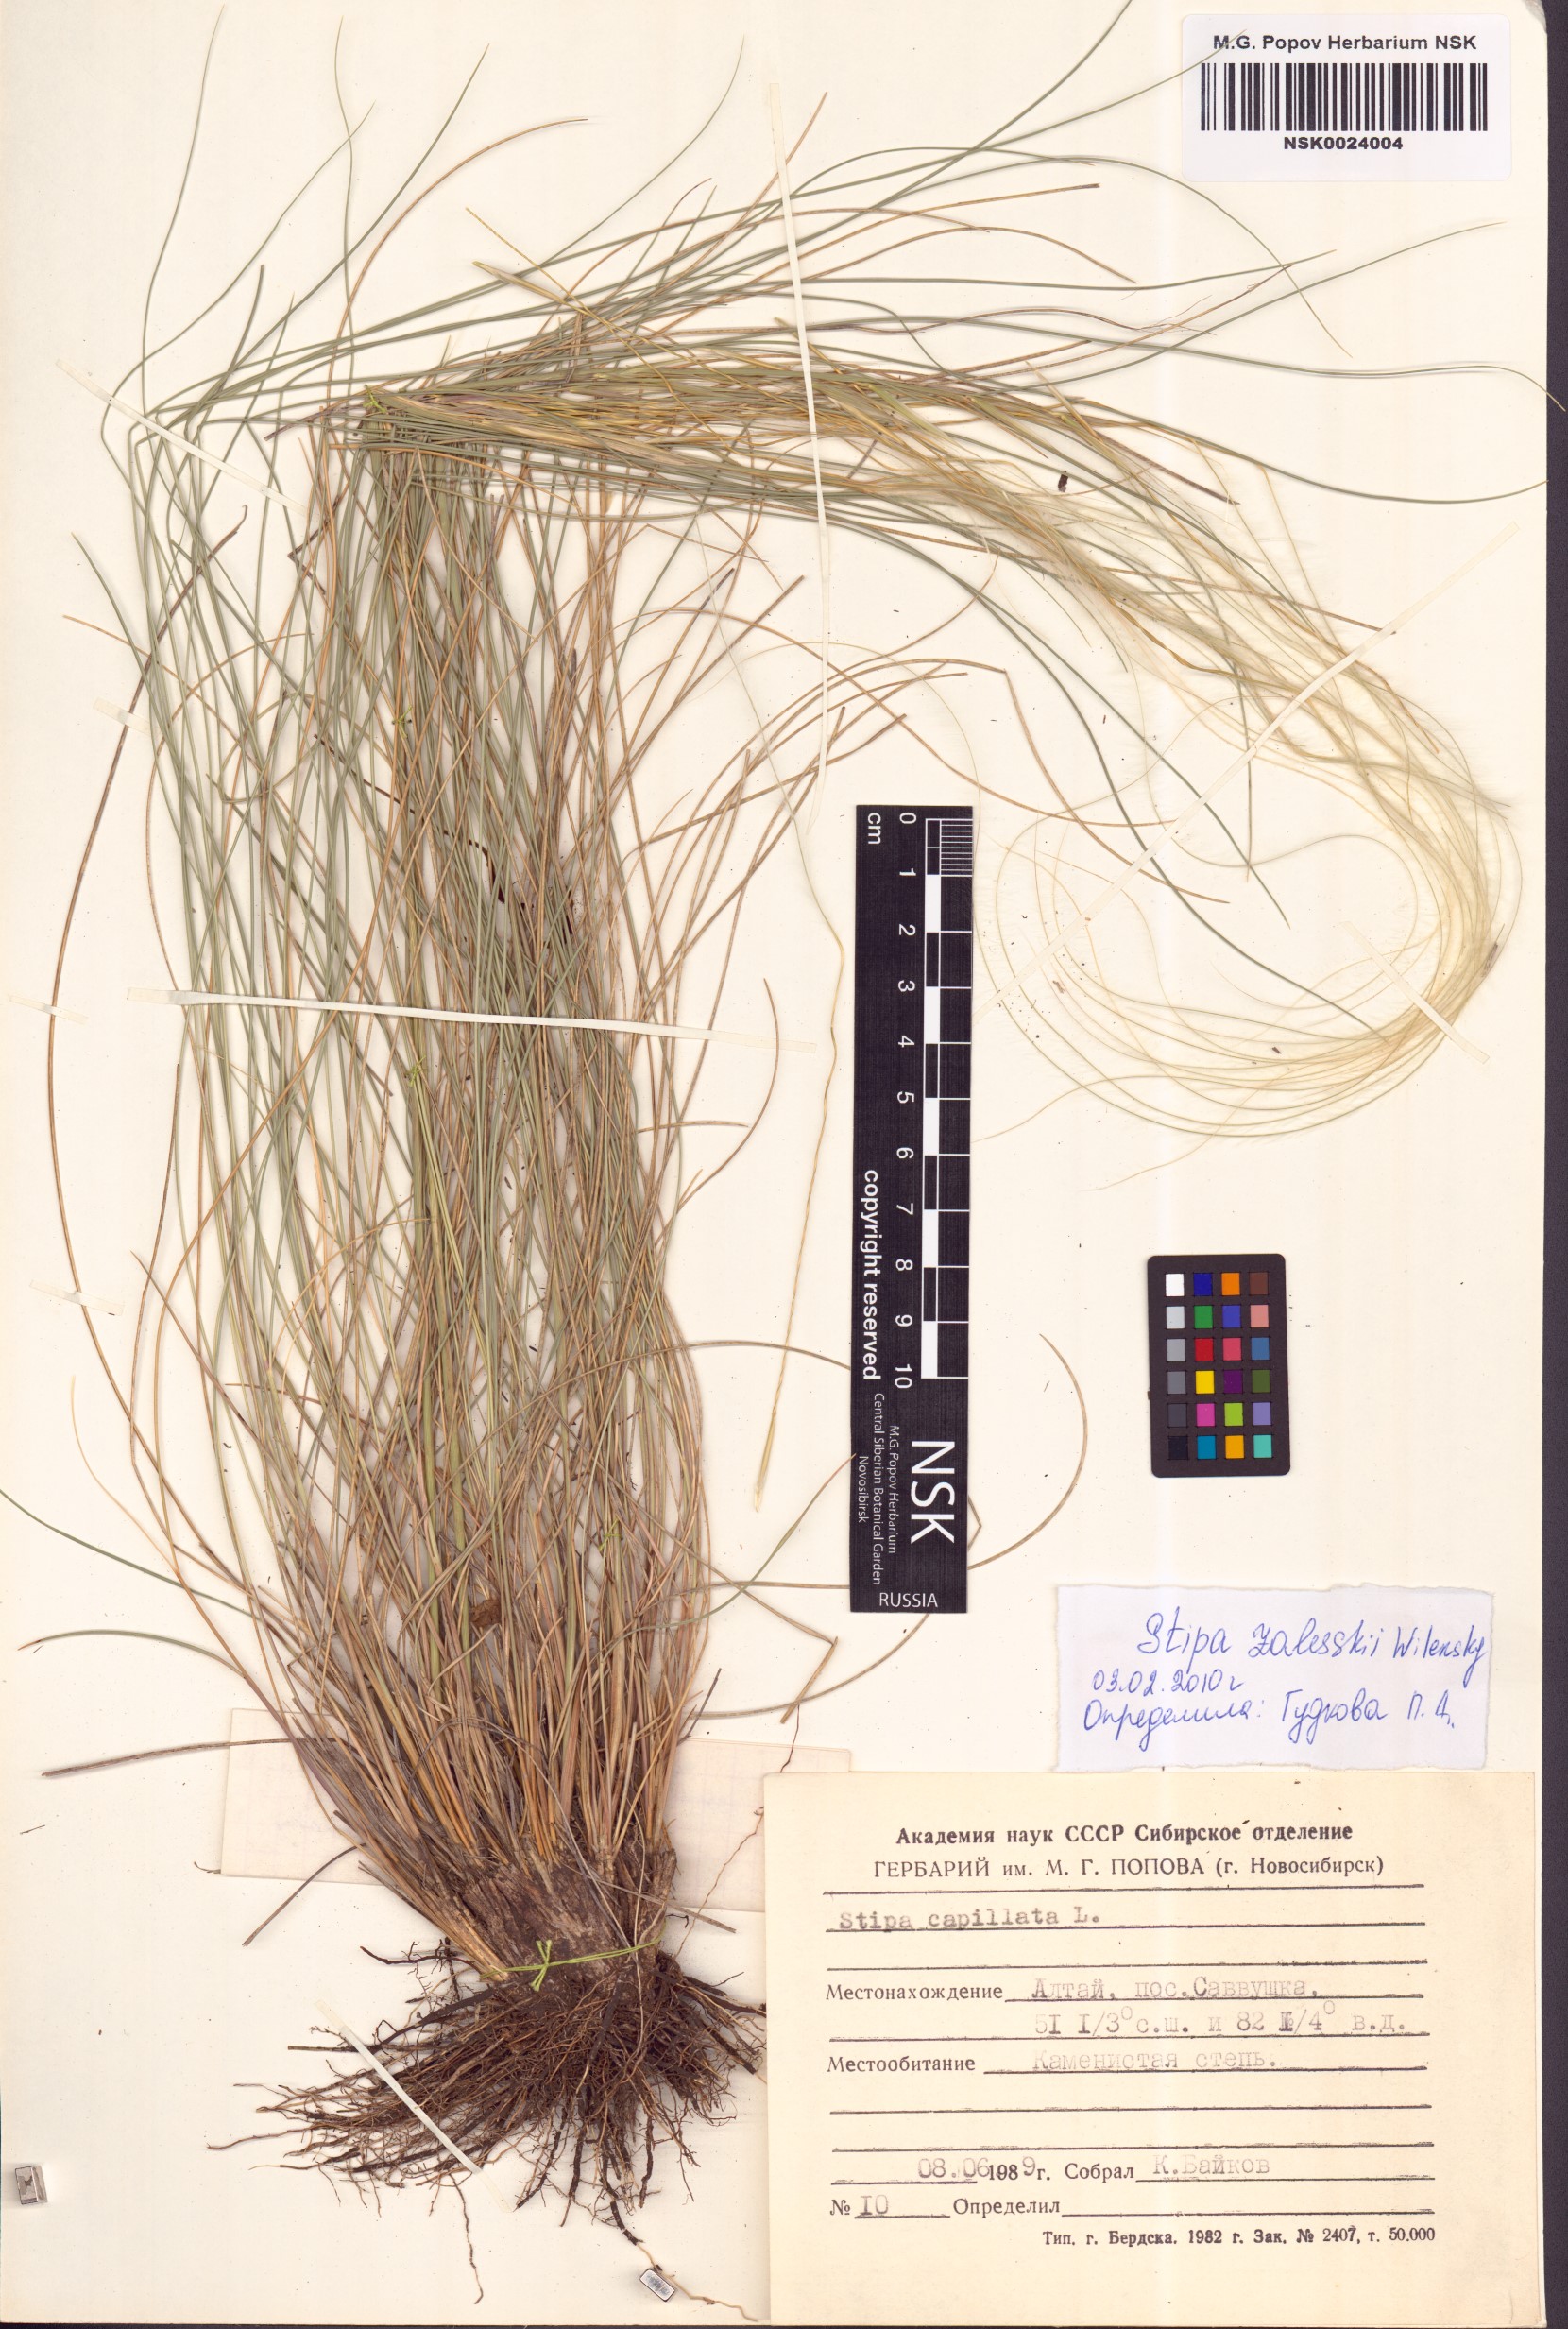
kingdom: Plantae
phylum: Tracheophyta
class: Liliopsida
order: Poales
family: Poaceae
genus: Stipa
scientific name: Stipa zalesskii
